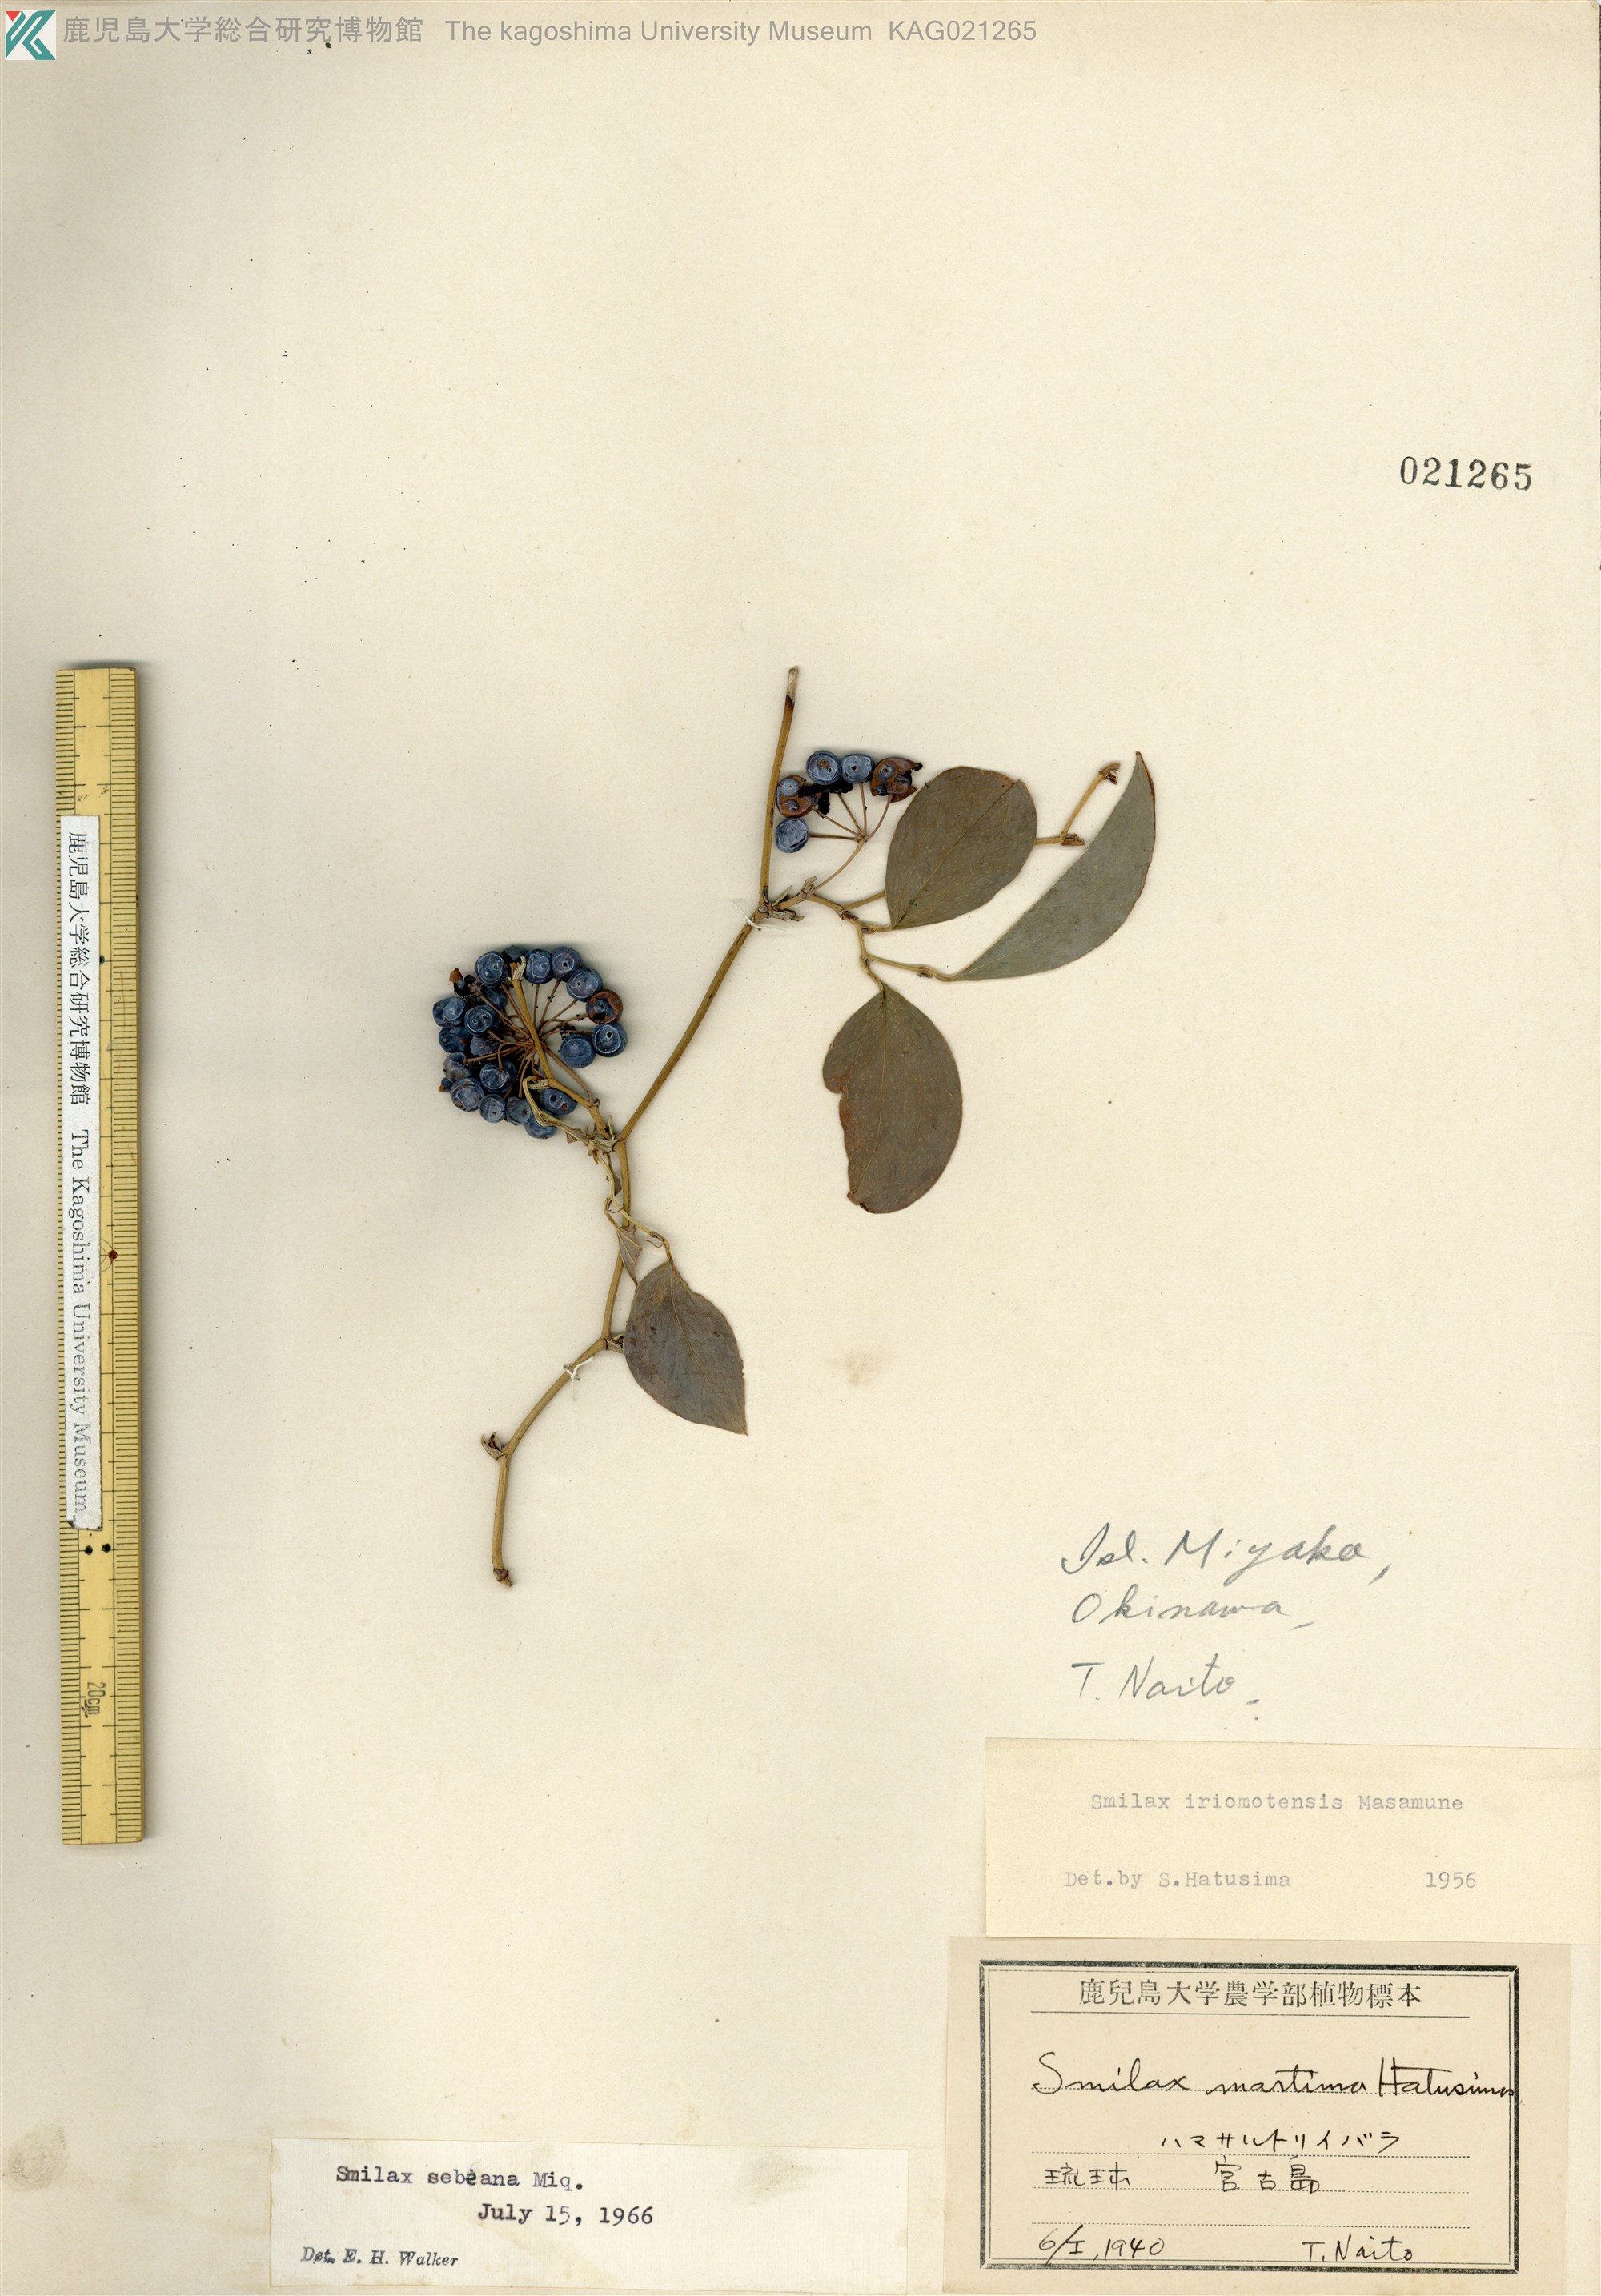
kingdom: Plantae
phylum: Tracheophyta
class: Liliopsida
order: Liliales
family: Smilacaceae
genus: Smilax
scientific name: Smilax sebeana
